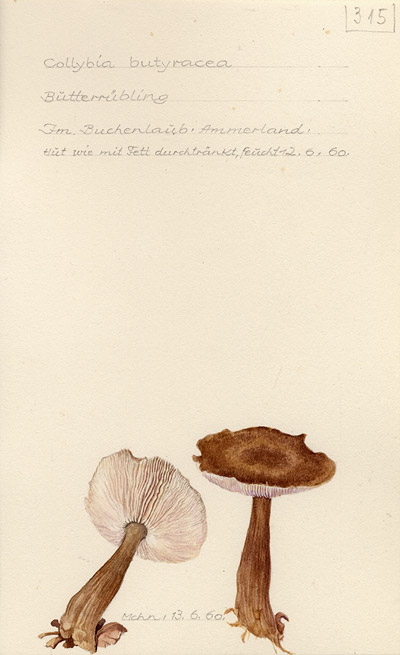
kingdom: Fungi
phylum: Basidiomycota
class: Agaricomycetes
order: Agaricales
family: Omphalotaceae
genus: Rhodocollybia
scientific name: Rhodocollybia butyracea
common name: Butter cap
